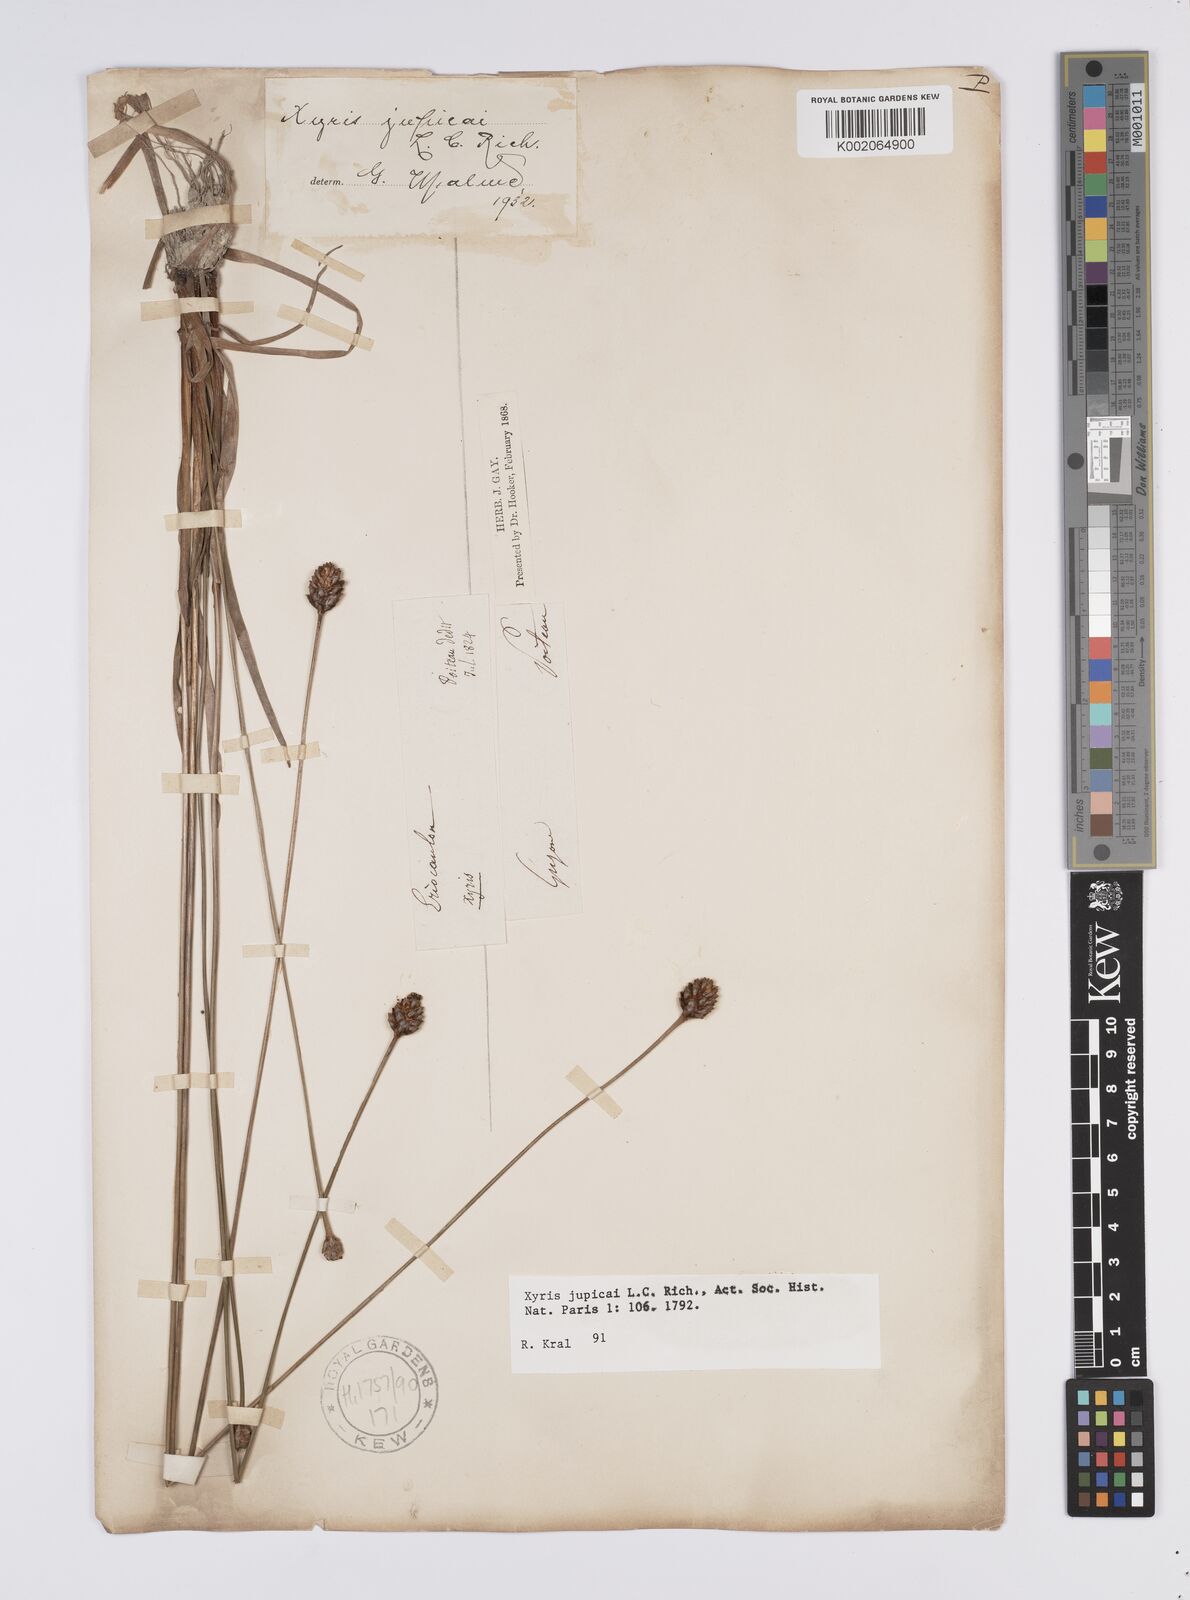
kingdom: Plantae
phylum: Tracheophyta
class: Liliopsida
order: Poales
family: Xyridaceae
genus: Xyris
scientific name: Xyris jupicai
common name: Richard's yelloweyed grass
